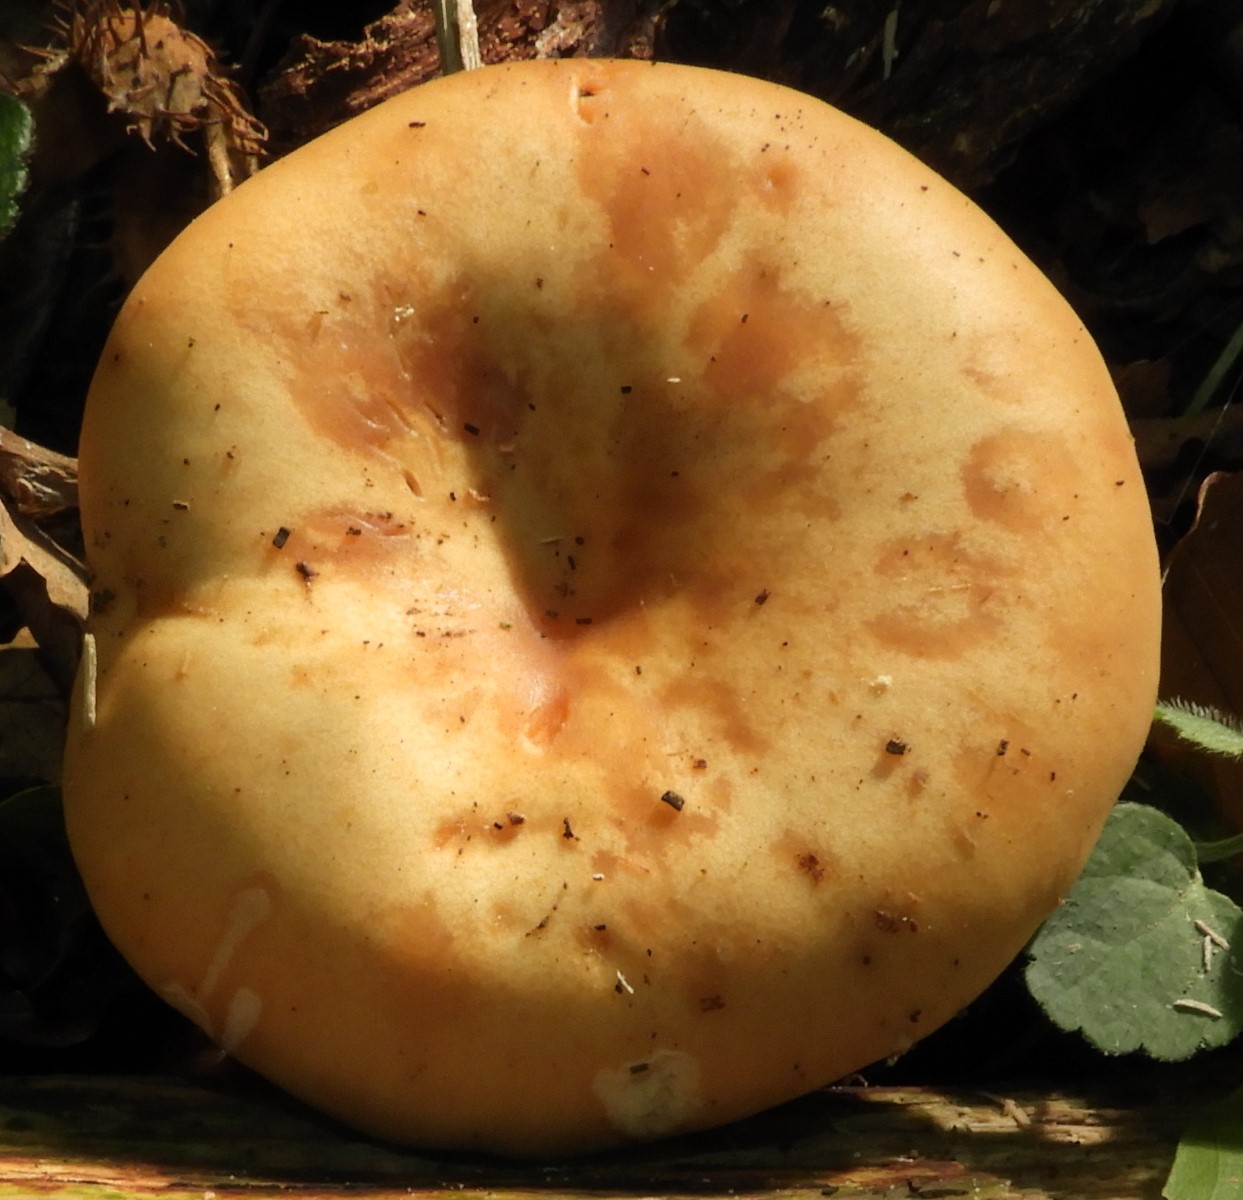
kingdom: Fungi
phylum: Basidiomycota
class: Agaricomycetes
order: Agaricales
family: Tricholomataceae
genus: Paralepista
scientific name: Paralepista flaccida
